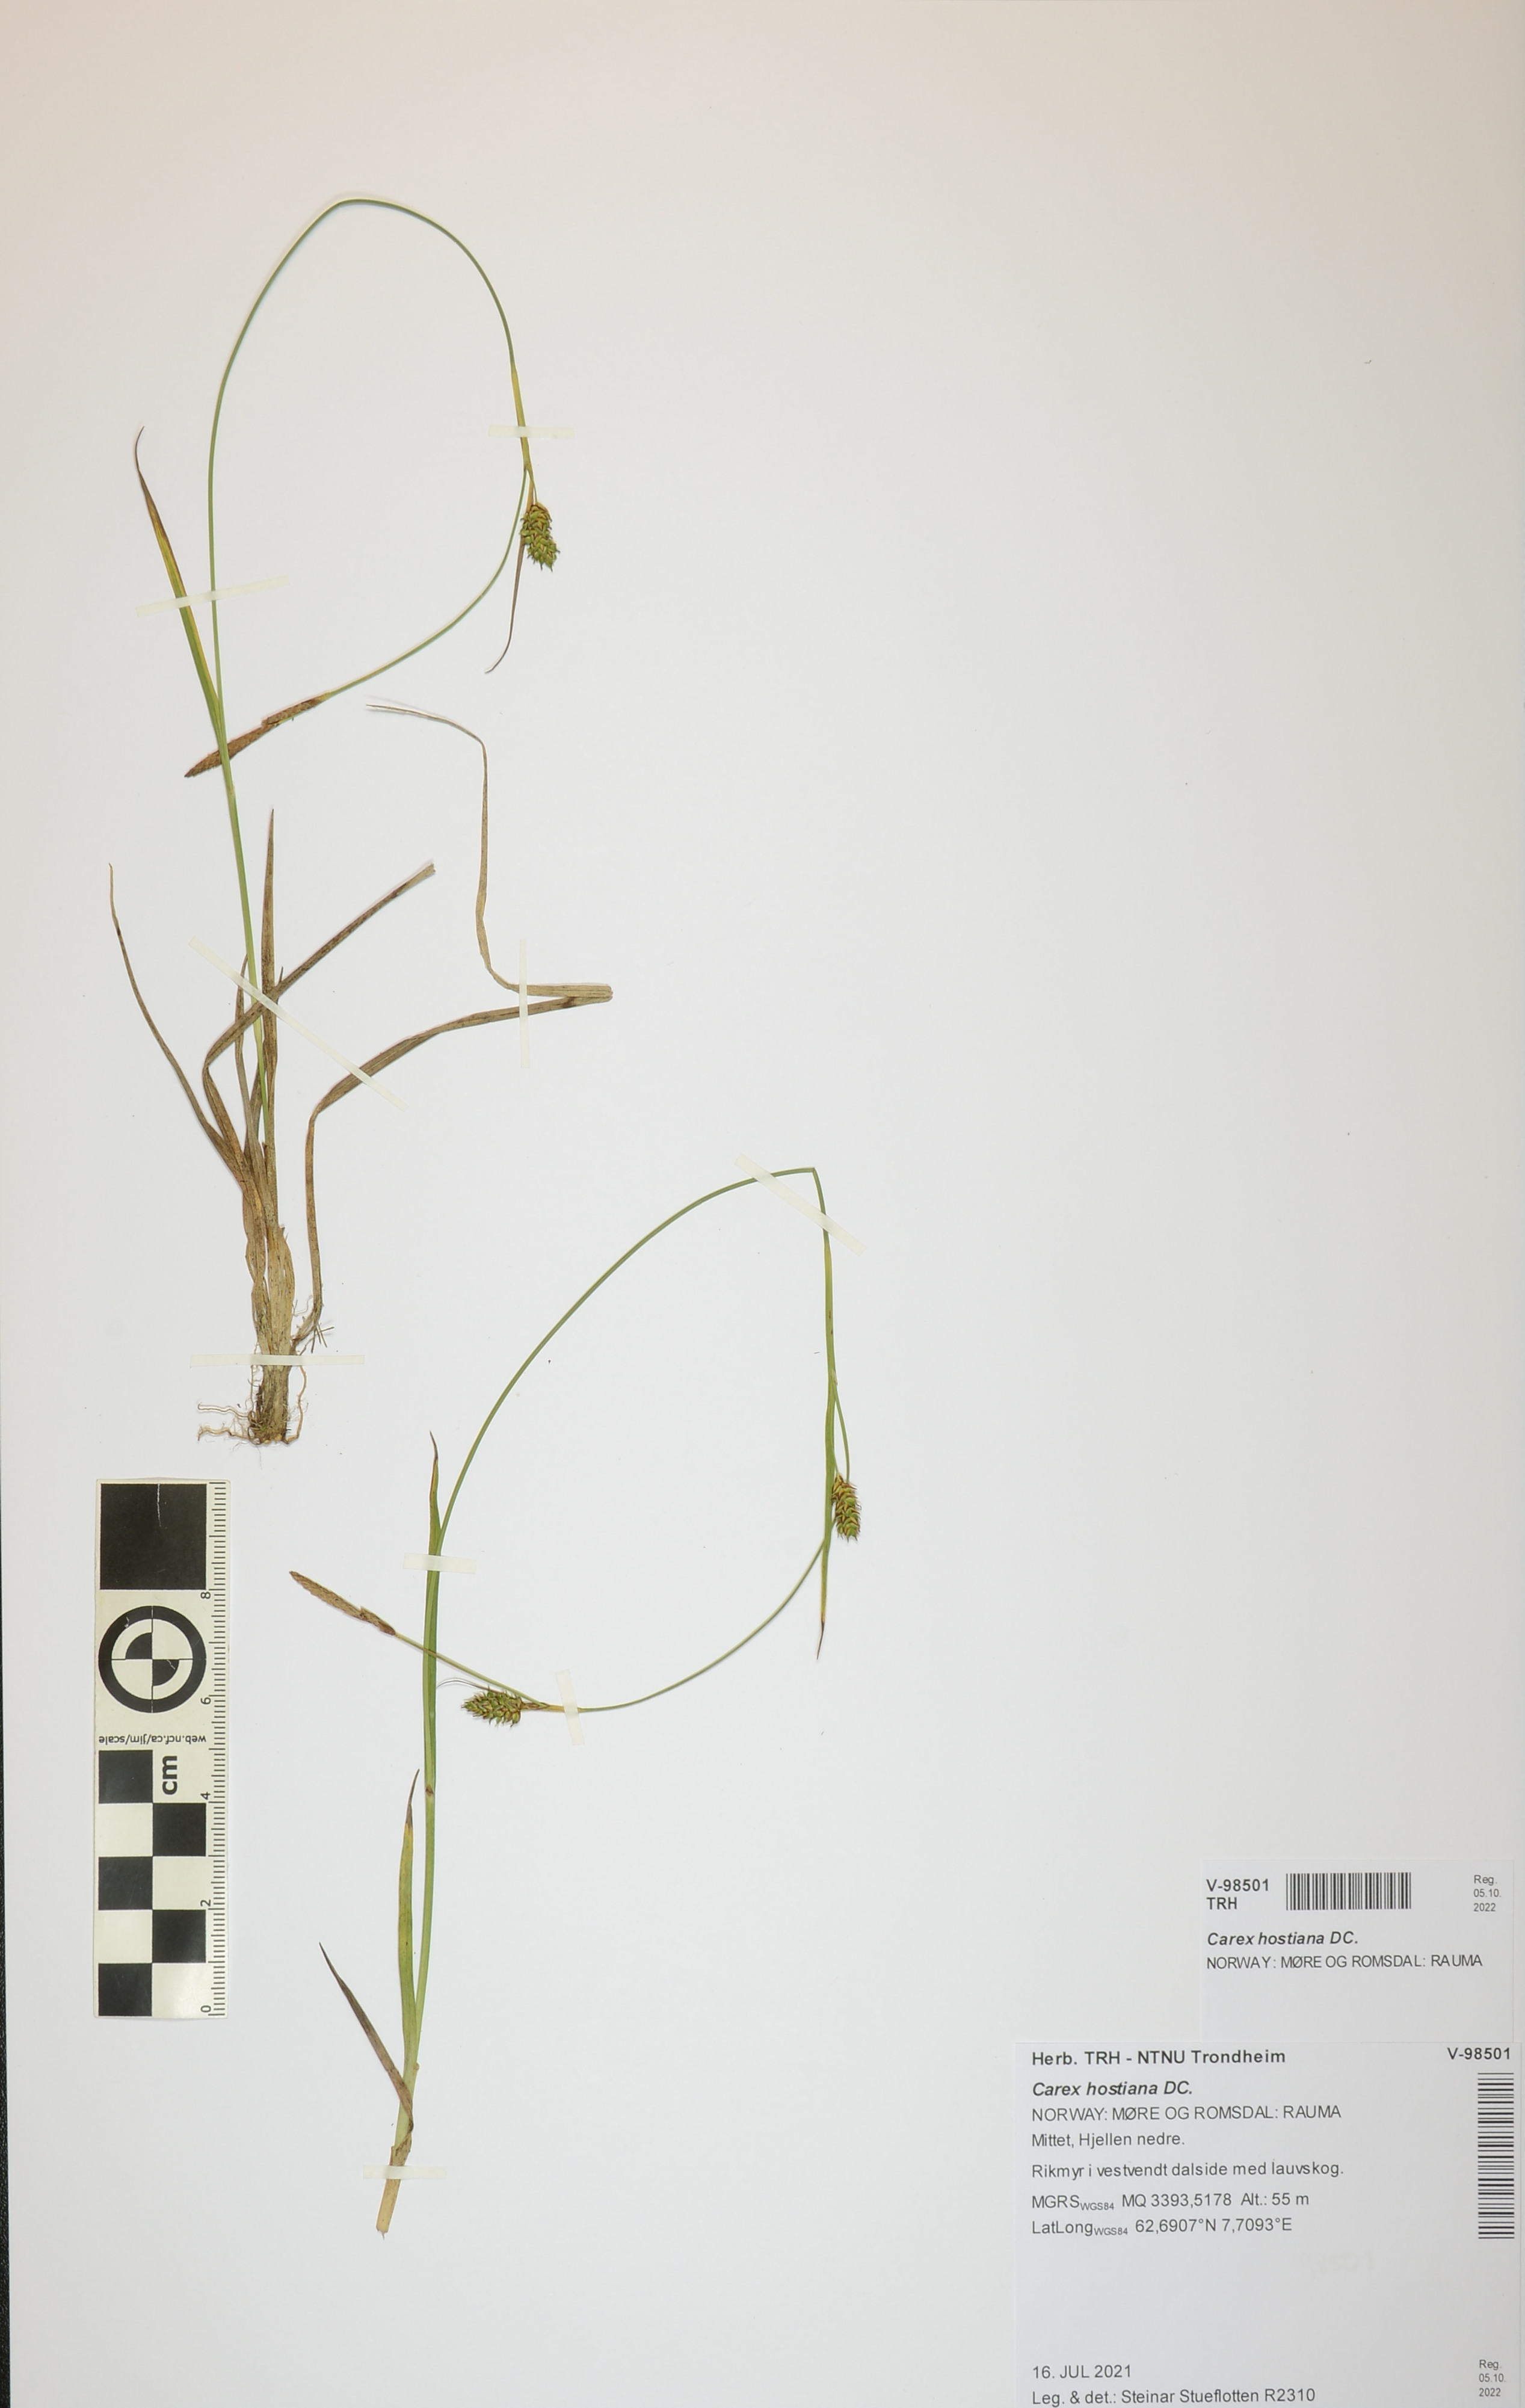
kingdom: Plantae
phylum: Tracheophyta
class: Liliopsida
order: Poales
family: Cyperaceae
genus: Carex
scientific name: Carex hostiana
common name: Tawny sedge
